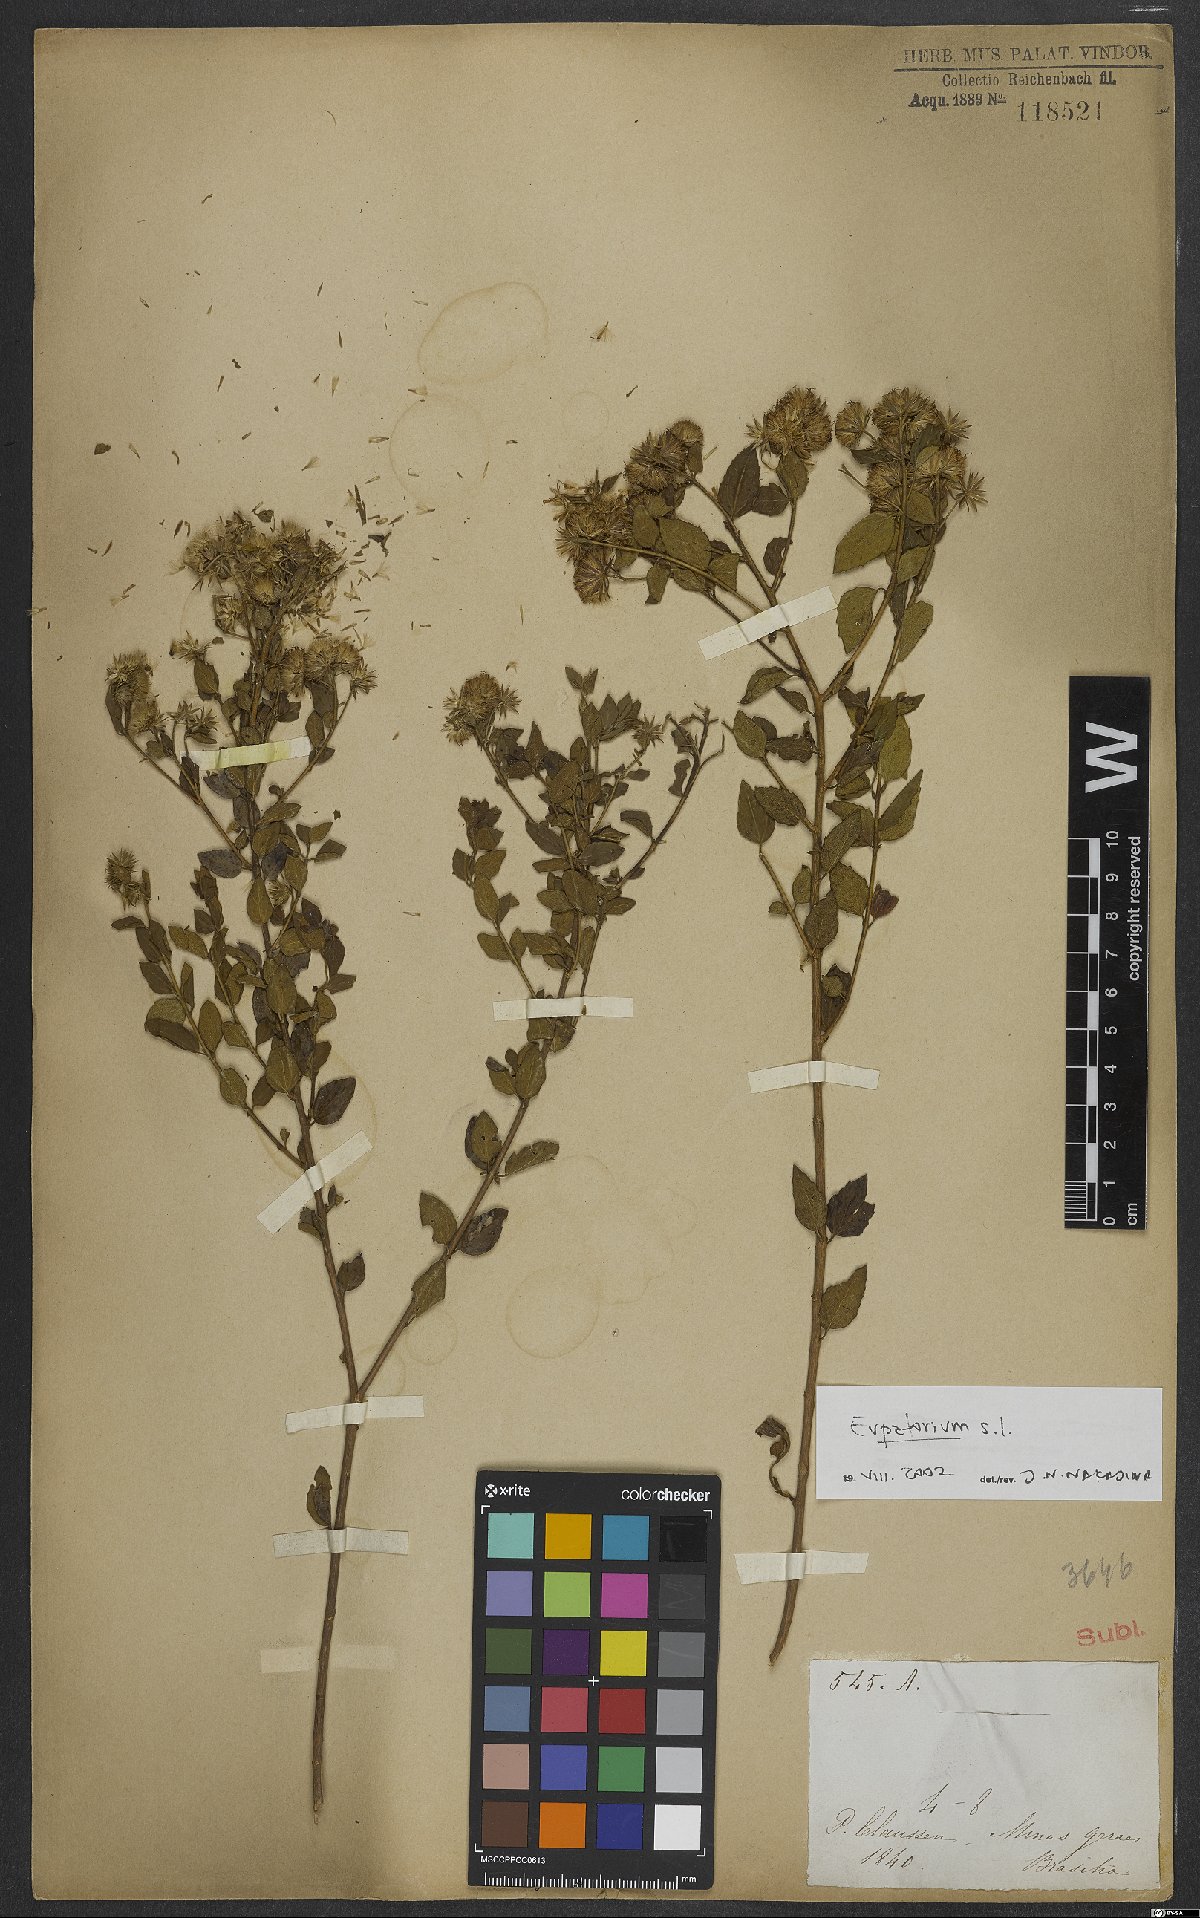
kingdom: Plantae
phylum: Tracheophyta
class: Magnoliopsida
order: Asterales
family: Asteraceae
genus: Eupatorium
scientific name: Eupatorium
